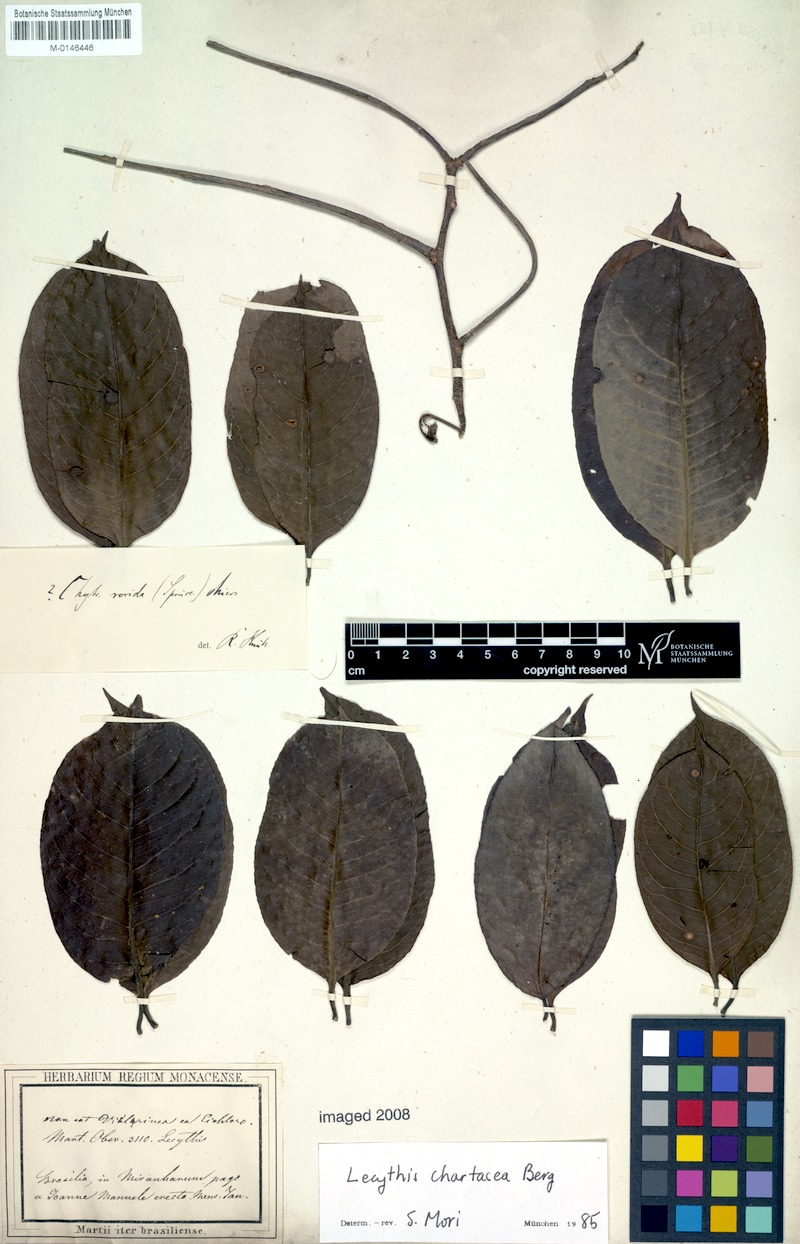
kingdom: Plantae
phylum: Tracheophyta
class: Magnoliopsida
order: Ericales
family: Lecythidaceae
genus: Lecythis
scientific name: Lecythis chartacea
